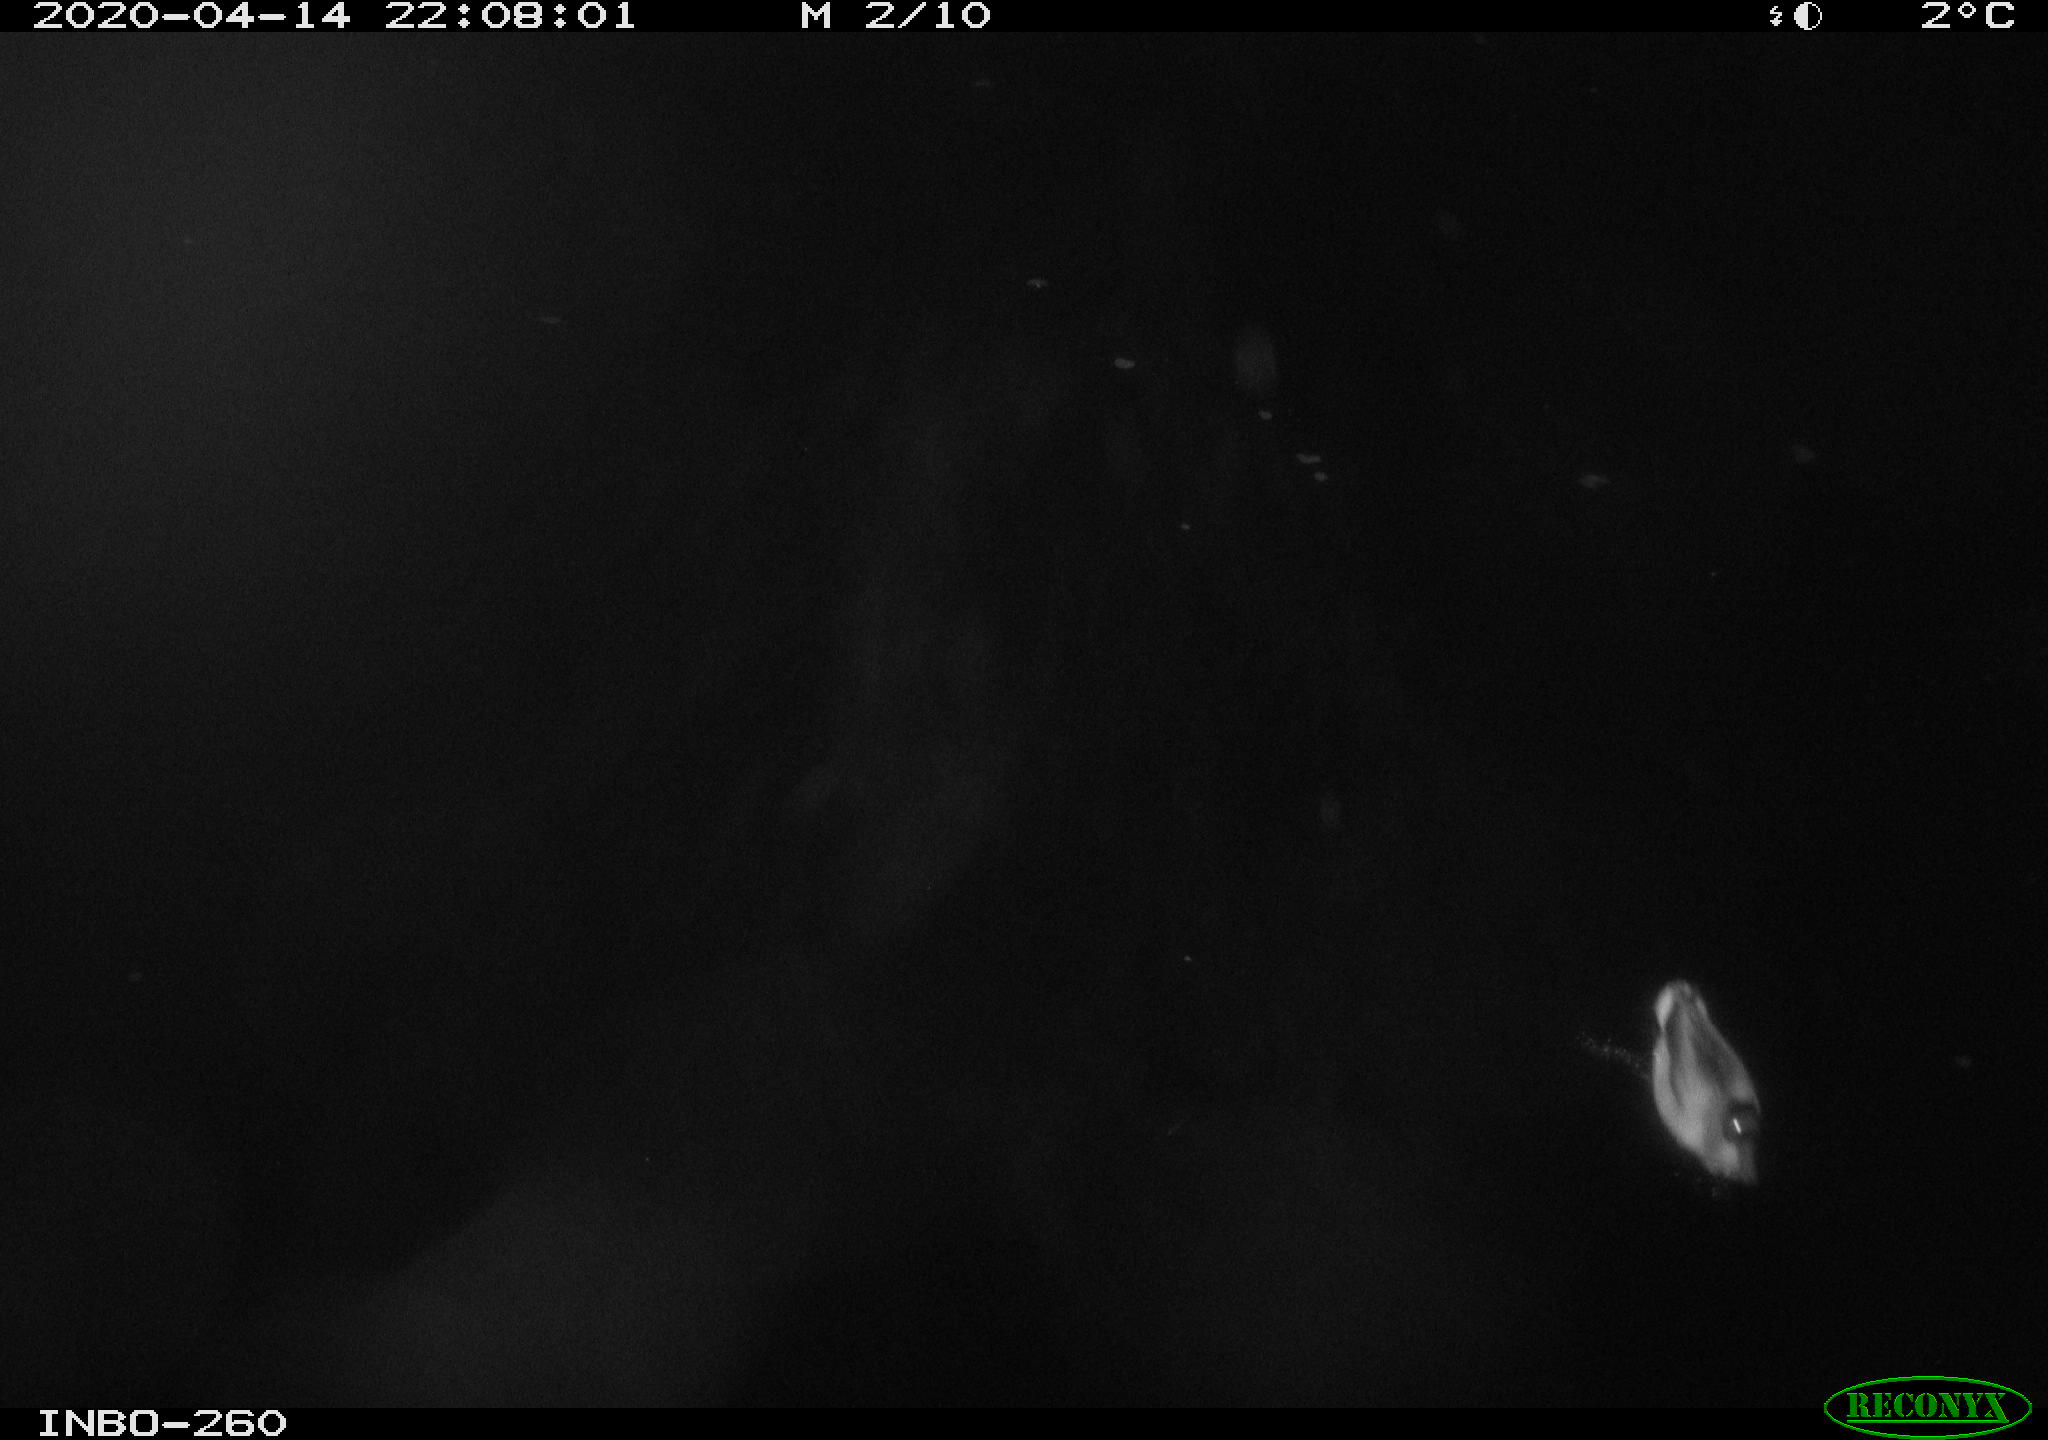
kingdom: Animalia
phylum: Chordata
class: Aves
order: Anseriformes
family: Anatidae
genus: Anas
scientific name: Anas platyrhynchos
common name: Mallard
